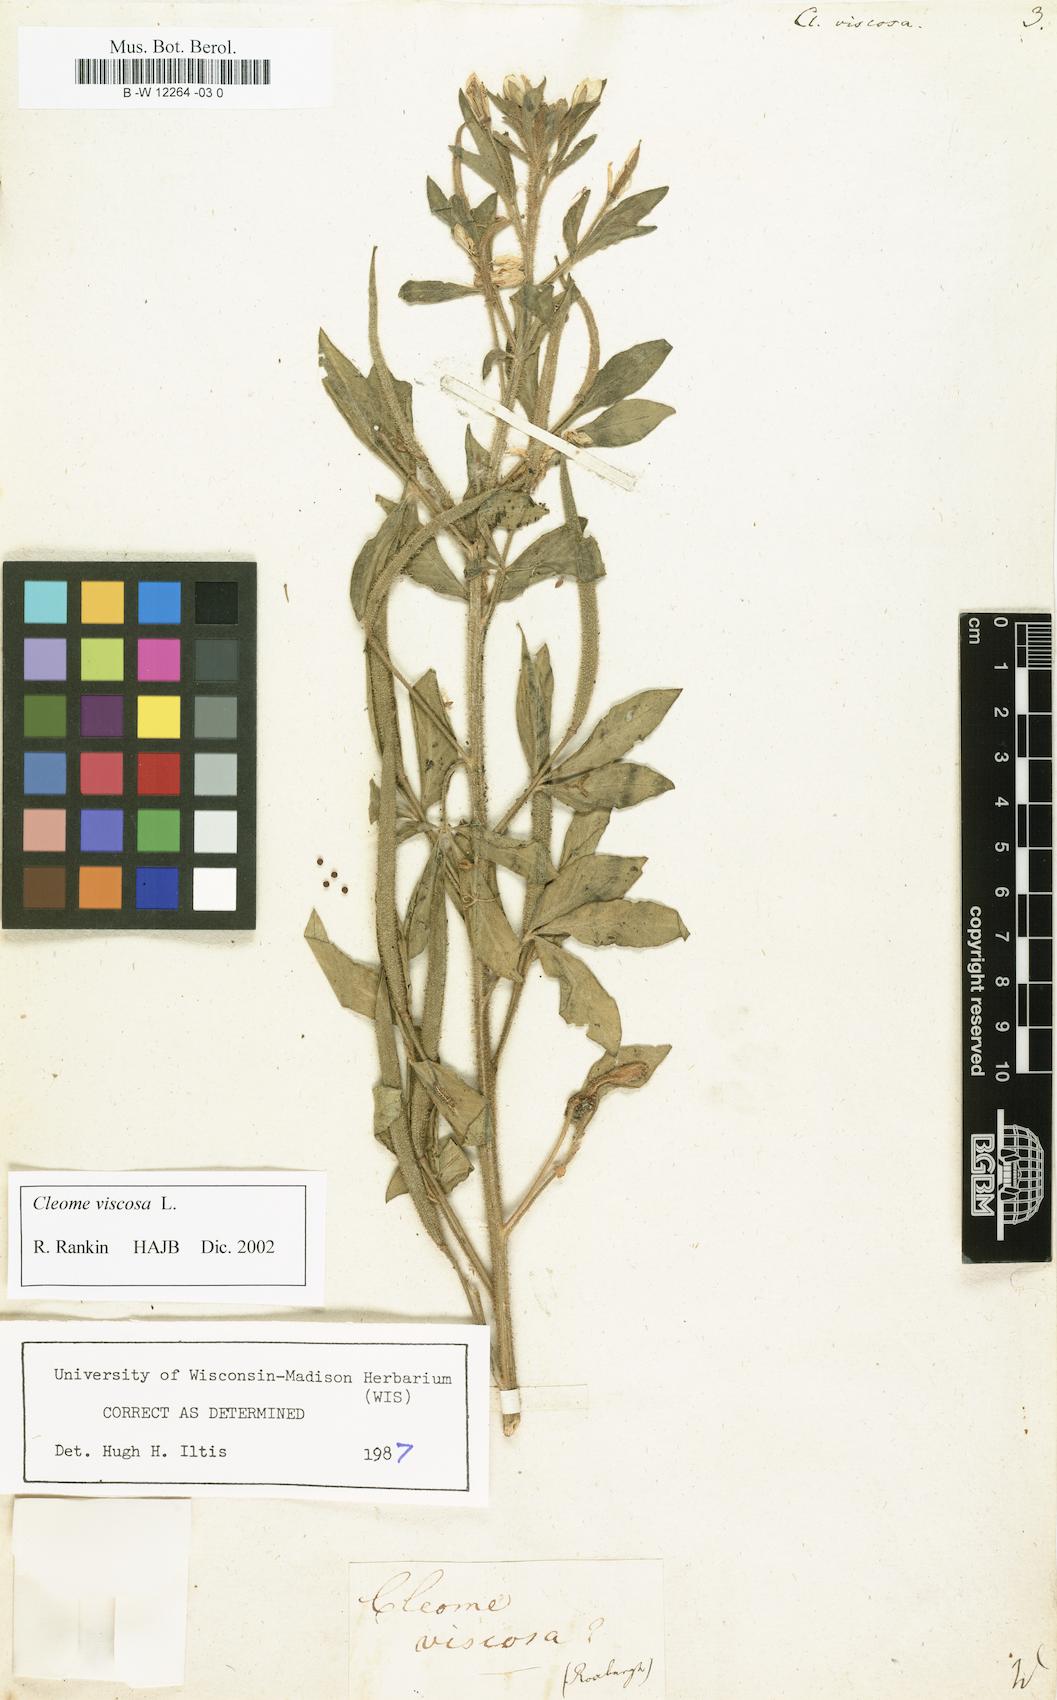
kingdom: Plantae
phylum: Tracheophyta
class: Magnoliopsida
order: Brassicales
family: Cleomaceae
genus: Arivela
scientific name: Arivela viscosa
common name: Asian spiderflower
